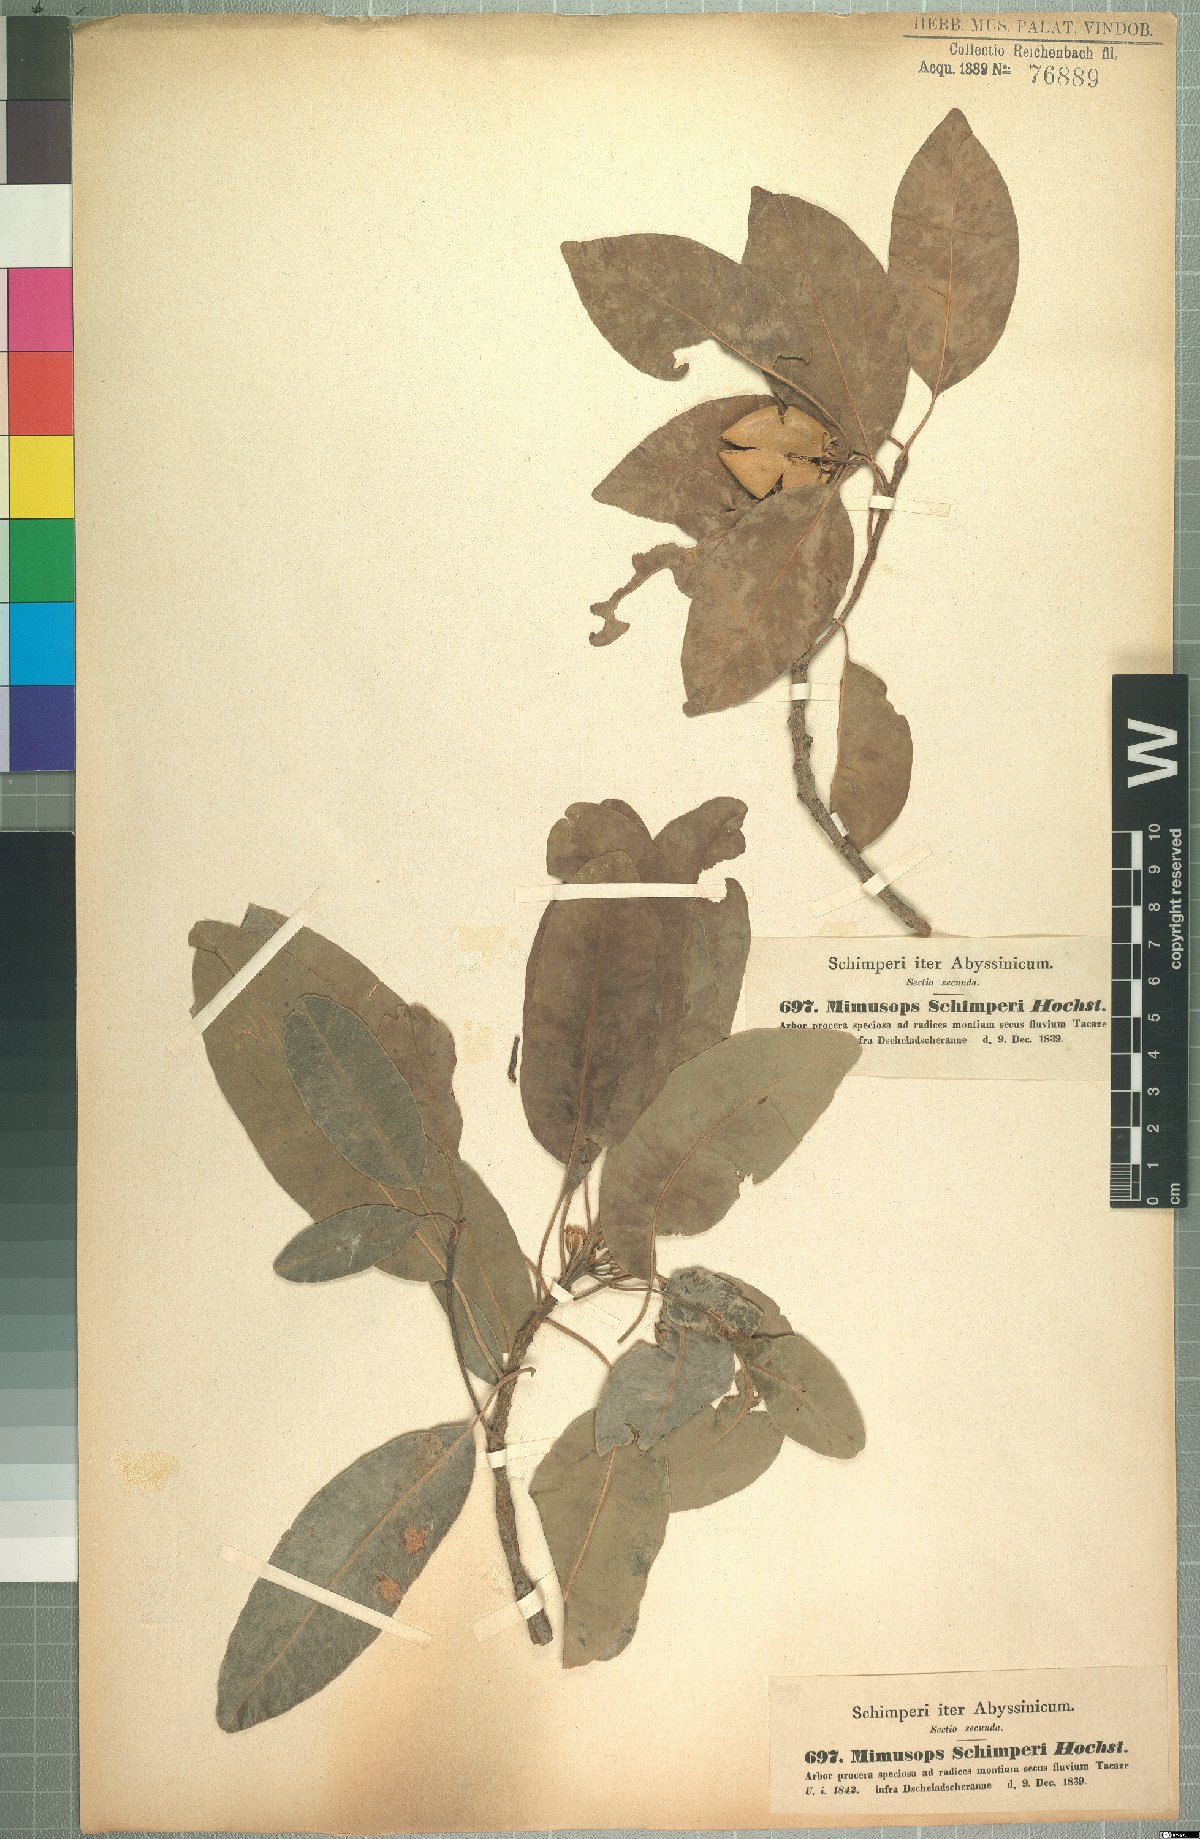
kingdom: Plantae
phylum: Tracheophyta
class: Magnoliopsida
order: Ericales
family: Sapotaceae
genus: Mimusops
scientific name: Mimusops laurifolia
